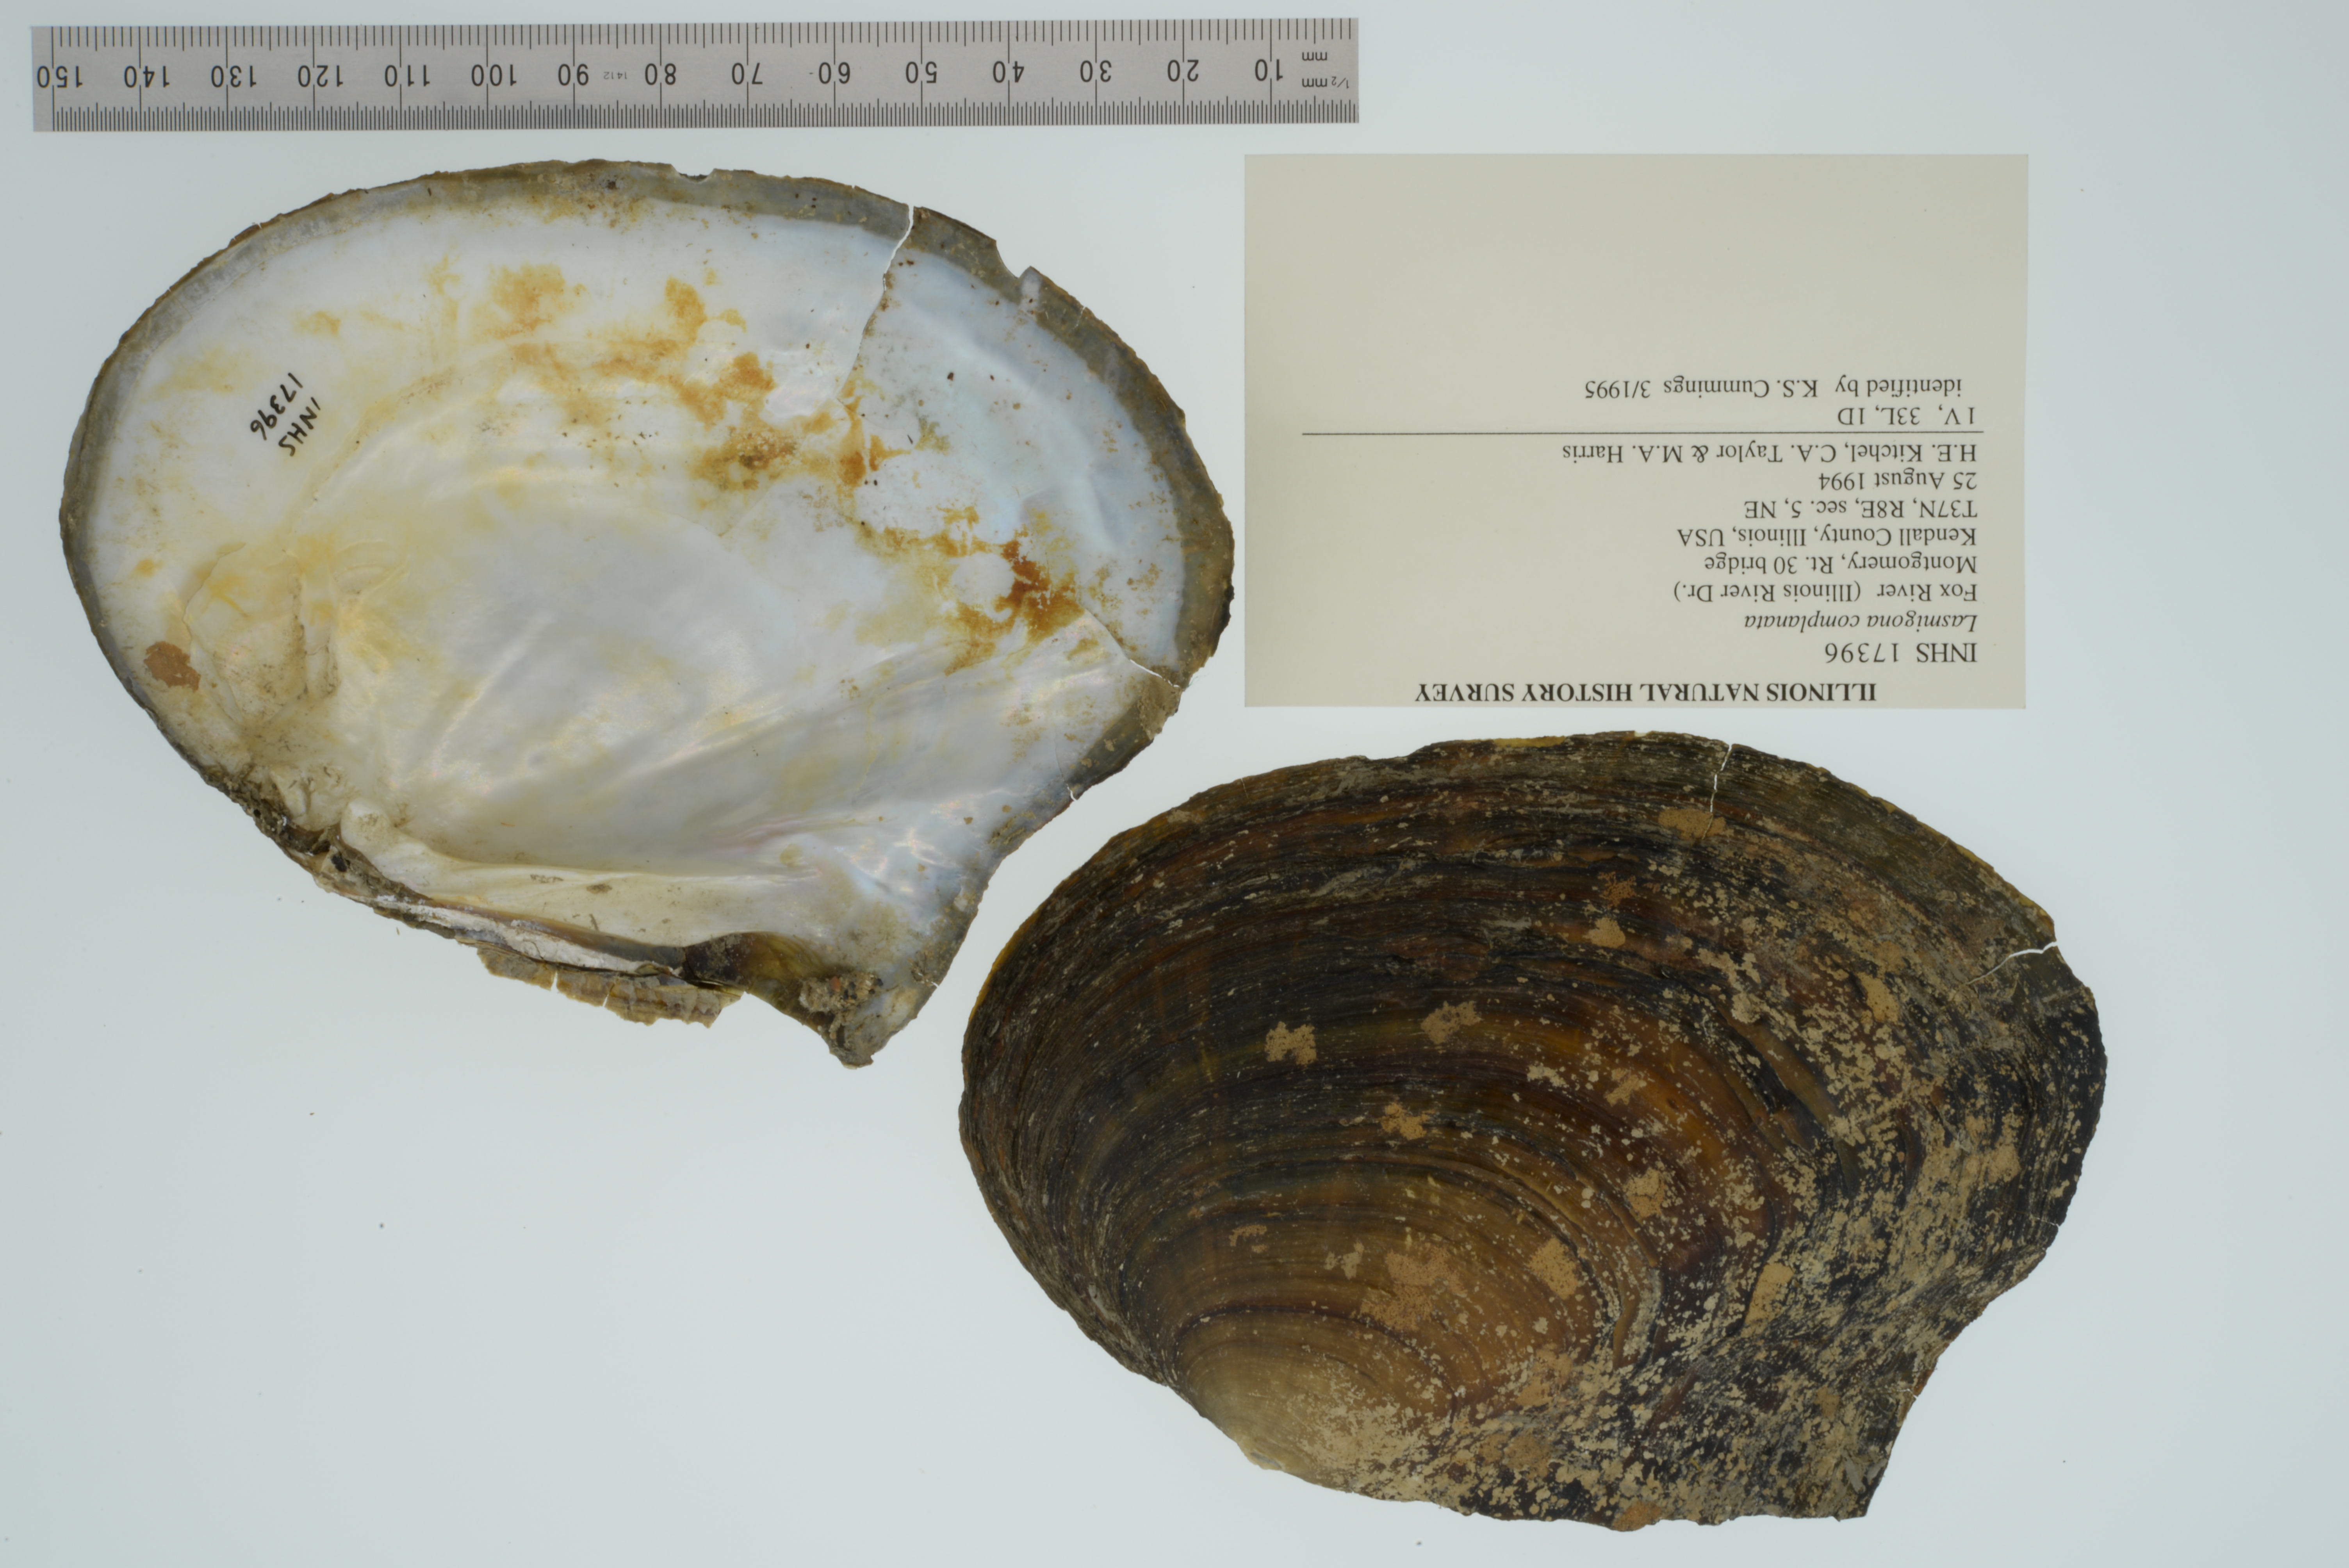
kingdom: Animalia
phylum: Mollusca
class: Bivalvia
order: Unionida
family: Unionidae
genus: Lasmigona
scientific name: Lasmigona complanata
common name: White heelsplitter
